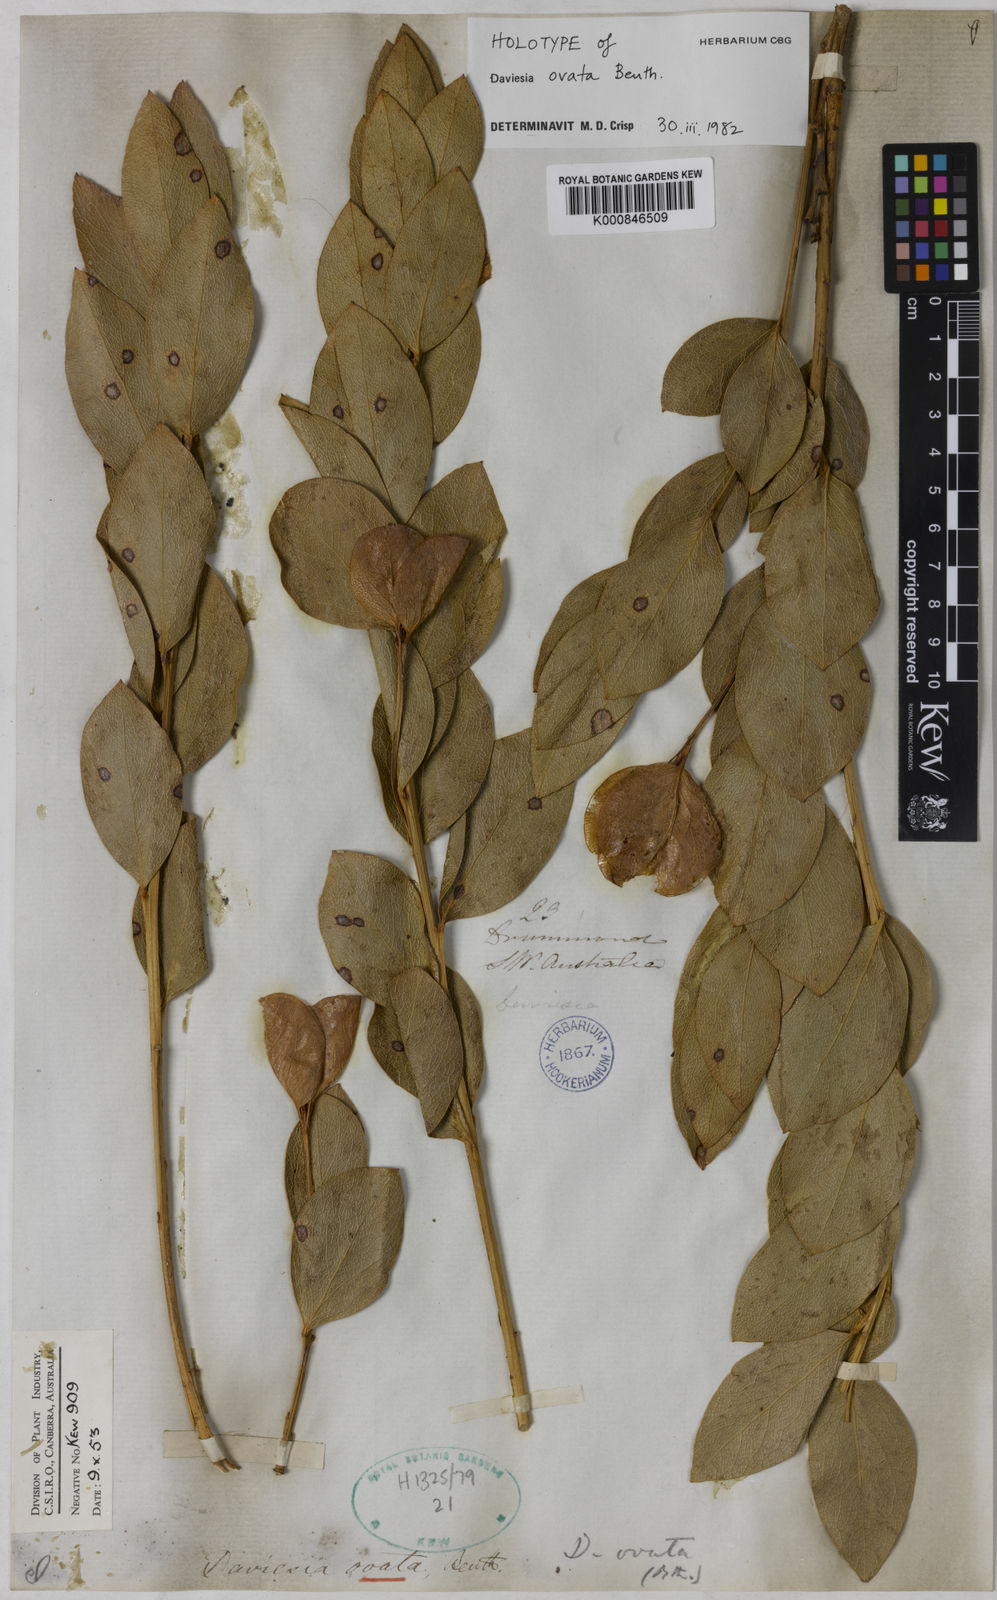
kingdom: Plantae
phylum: Tracheophyta
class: Magnoliopsida
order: Fabales
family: Fabaceae
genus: Daviesia
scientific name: Daviesia ovata
